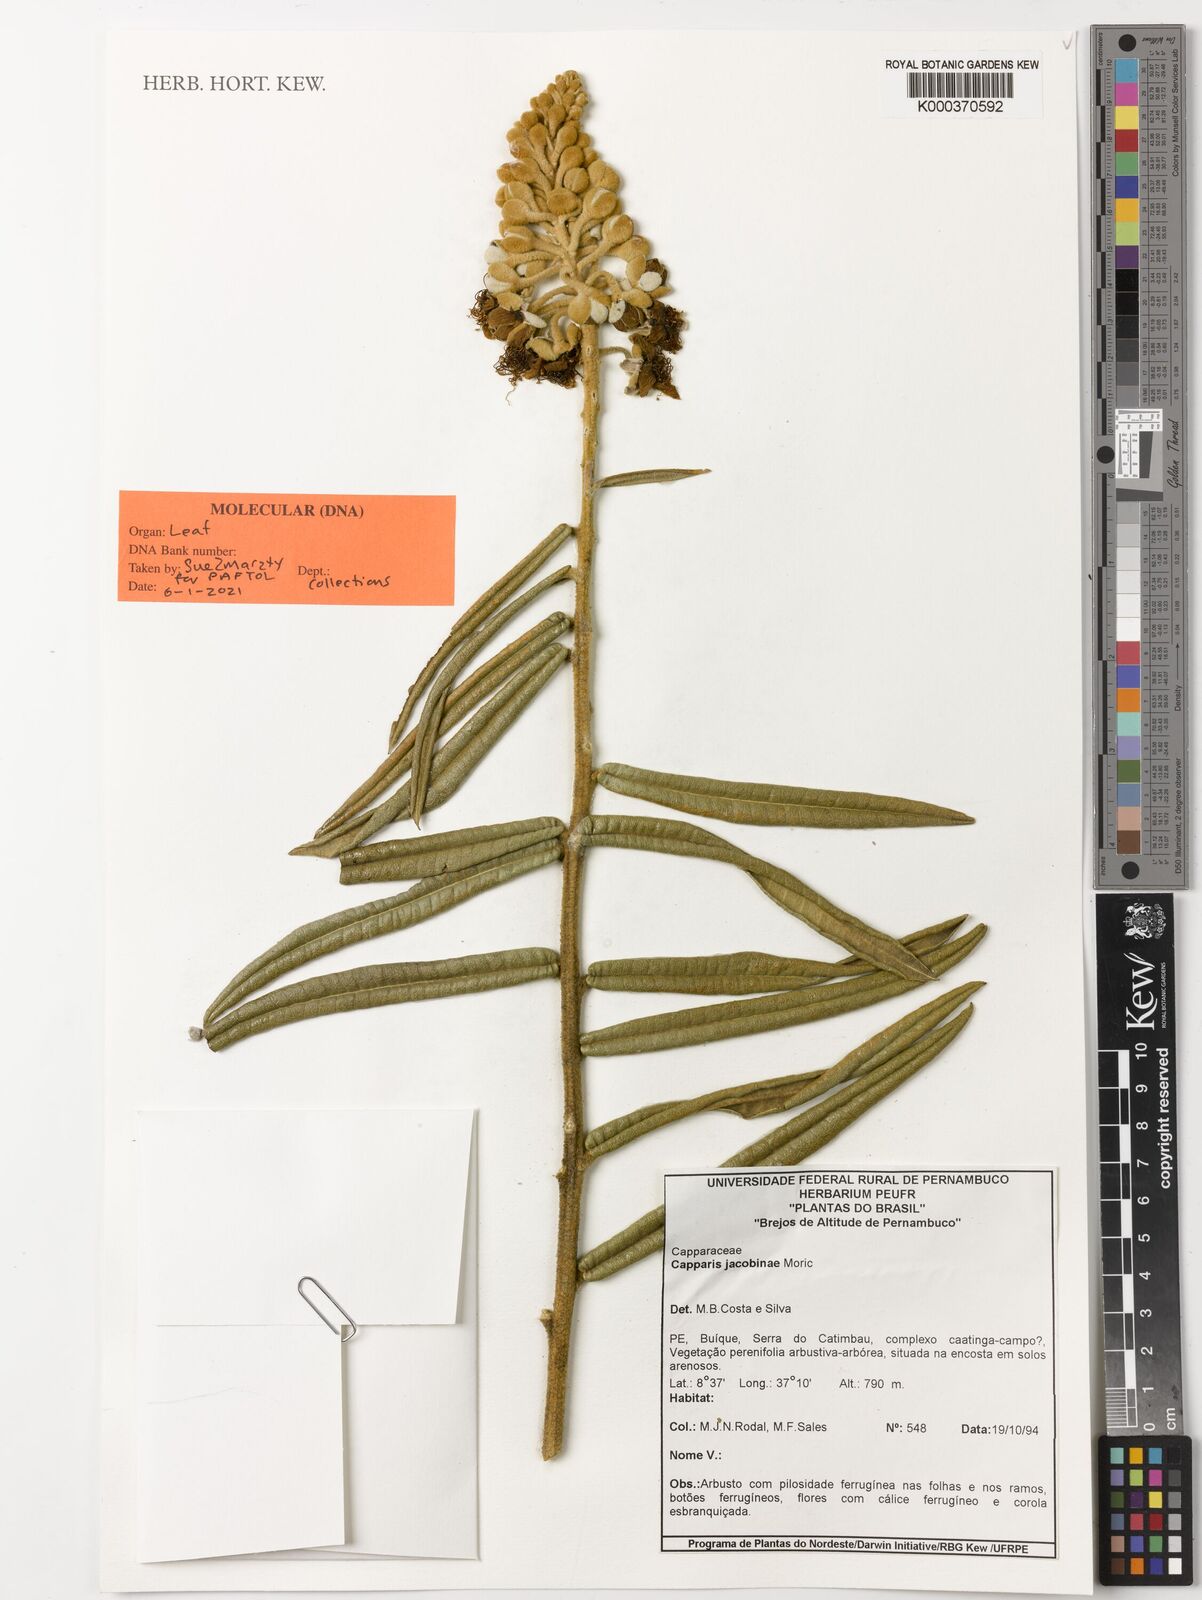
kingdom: Plantae
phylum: Tracheophyta
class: Magnoliopsida
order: Brassicales
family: Capparaceae
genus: Neocalyptrocalyx
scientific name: Neocalyptrocalyx longifolium
